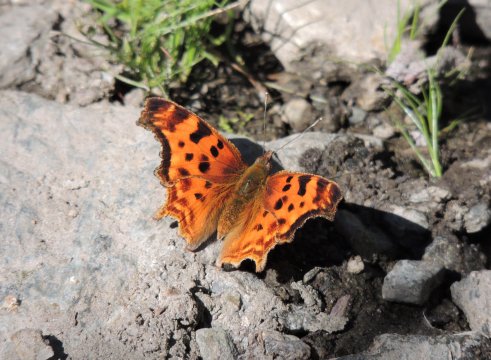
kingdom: Animalia
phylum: Arthropoda
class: Insecta
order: Lepidoptera
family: Nymphalidae
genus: Polygonia
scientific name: Polygonia satyrus
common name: Satyr Comma
